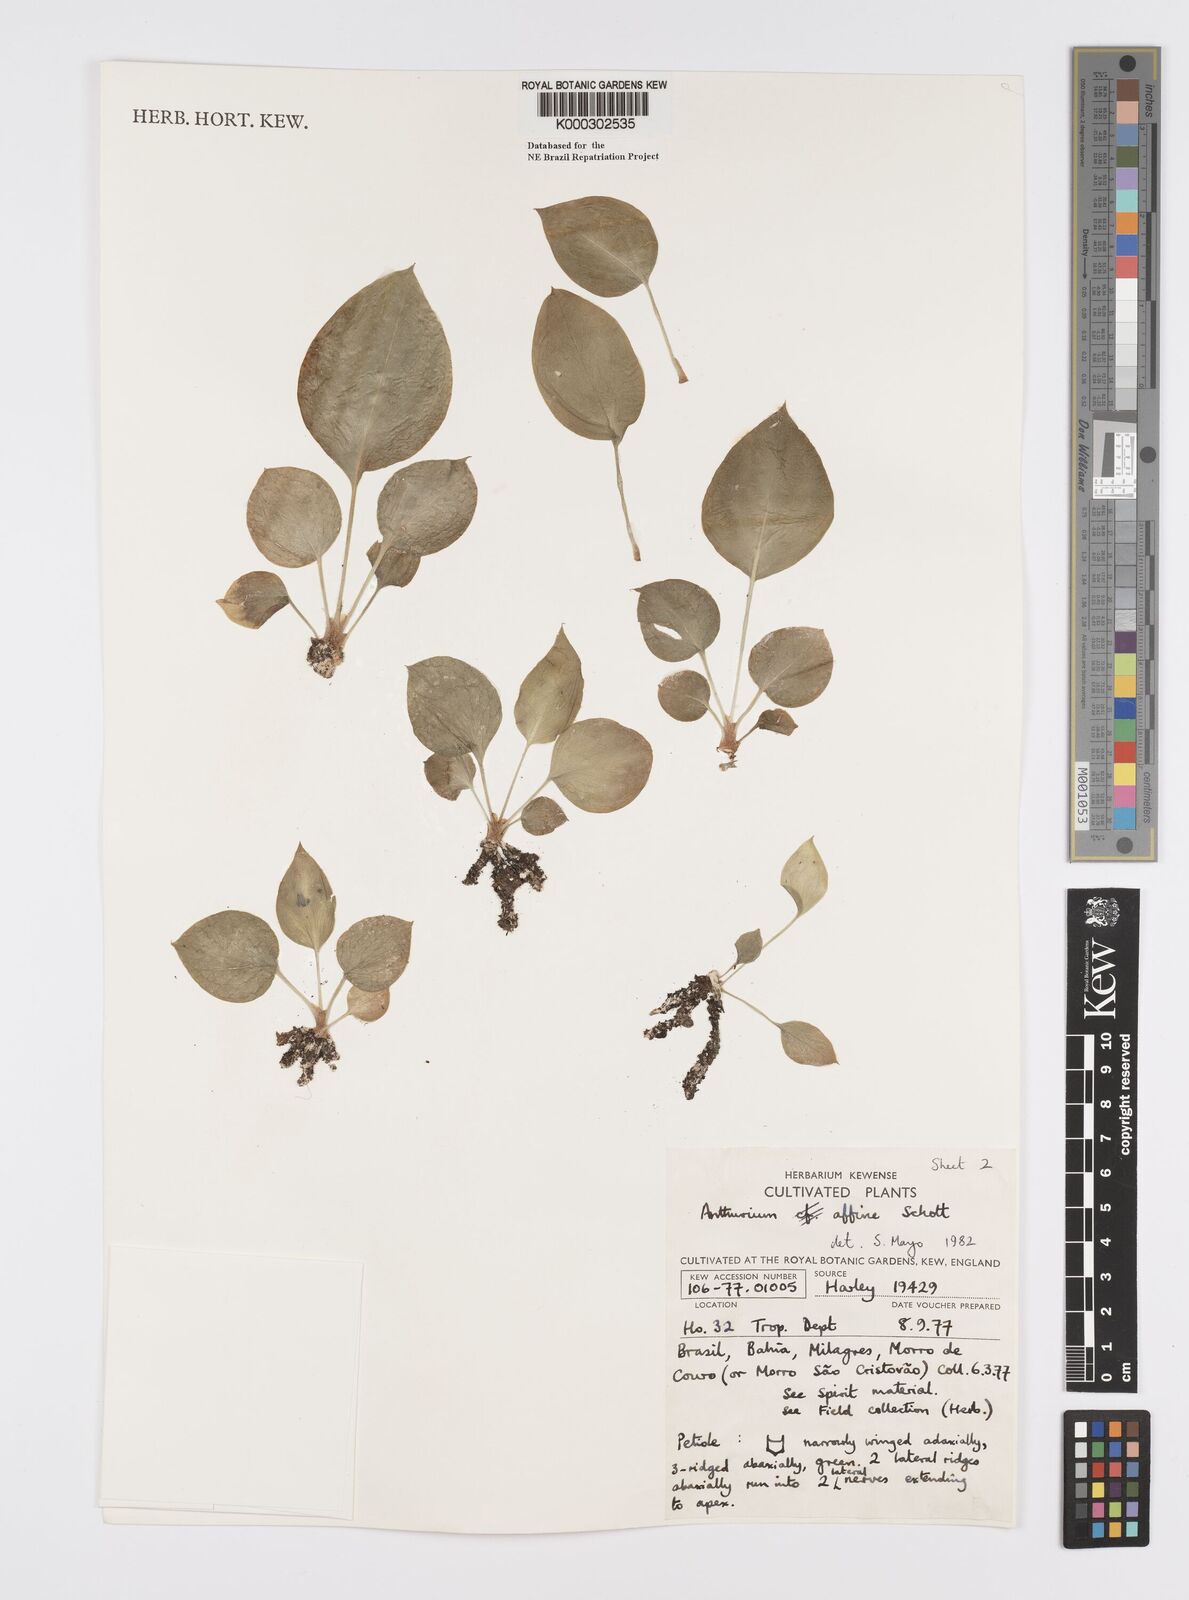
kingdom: Plantae
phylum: Tracheophyta
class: Liliopsida
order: Alismatales
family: Araceae
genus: Anthurium
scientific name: Anthurium affine
